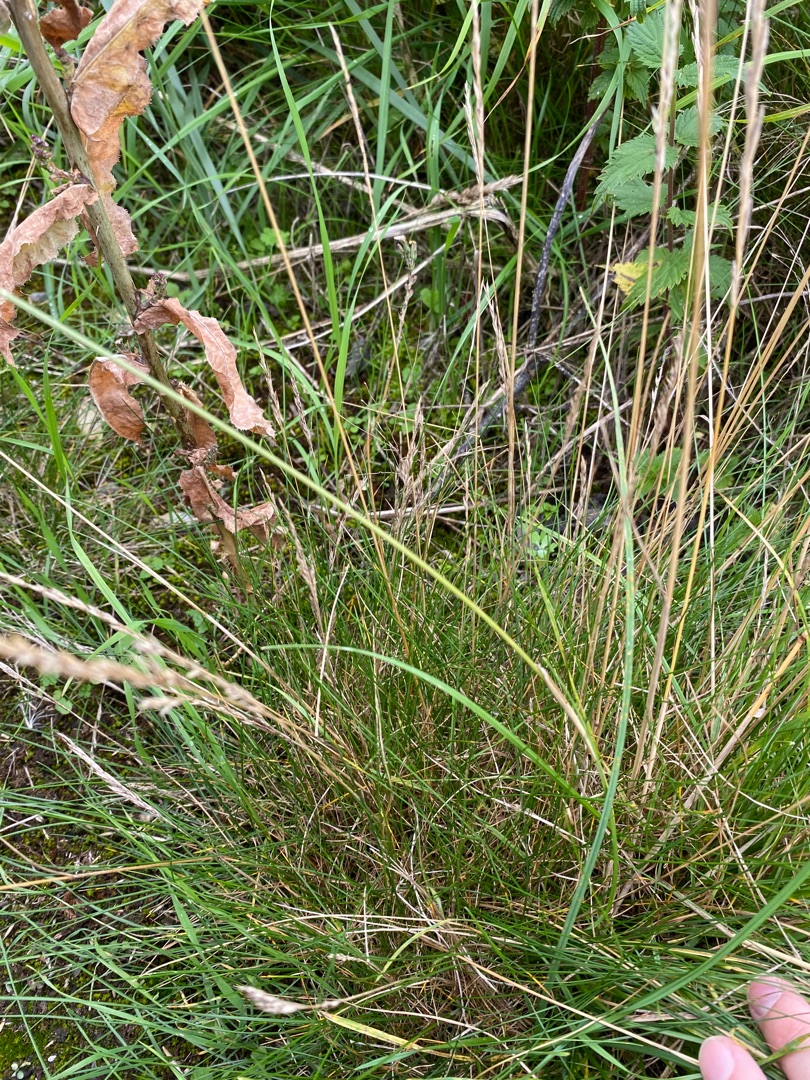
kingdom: Plantae
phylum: Tracheophyta
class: Liliopsida
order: Poales
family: Poaceae
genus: Festuca
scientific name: Festuca rubra
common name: Rød svingel
